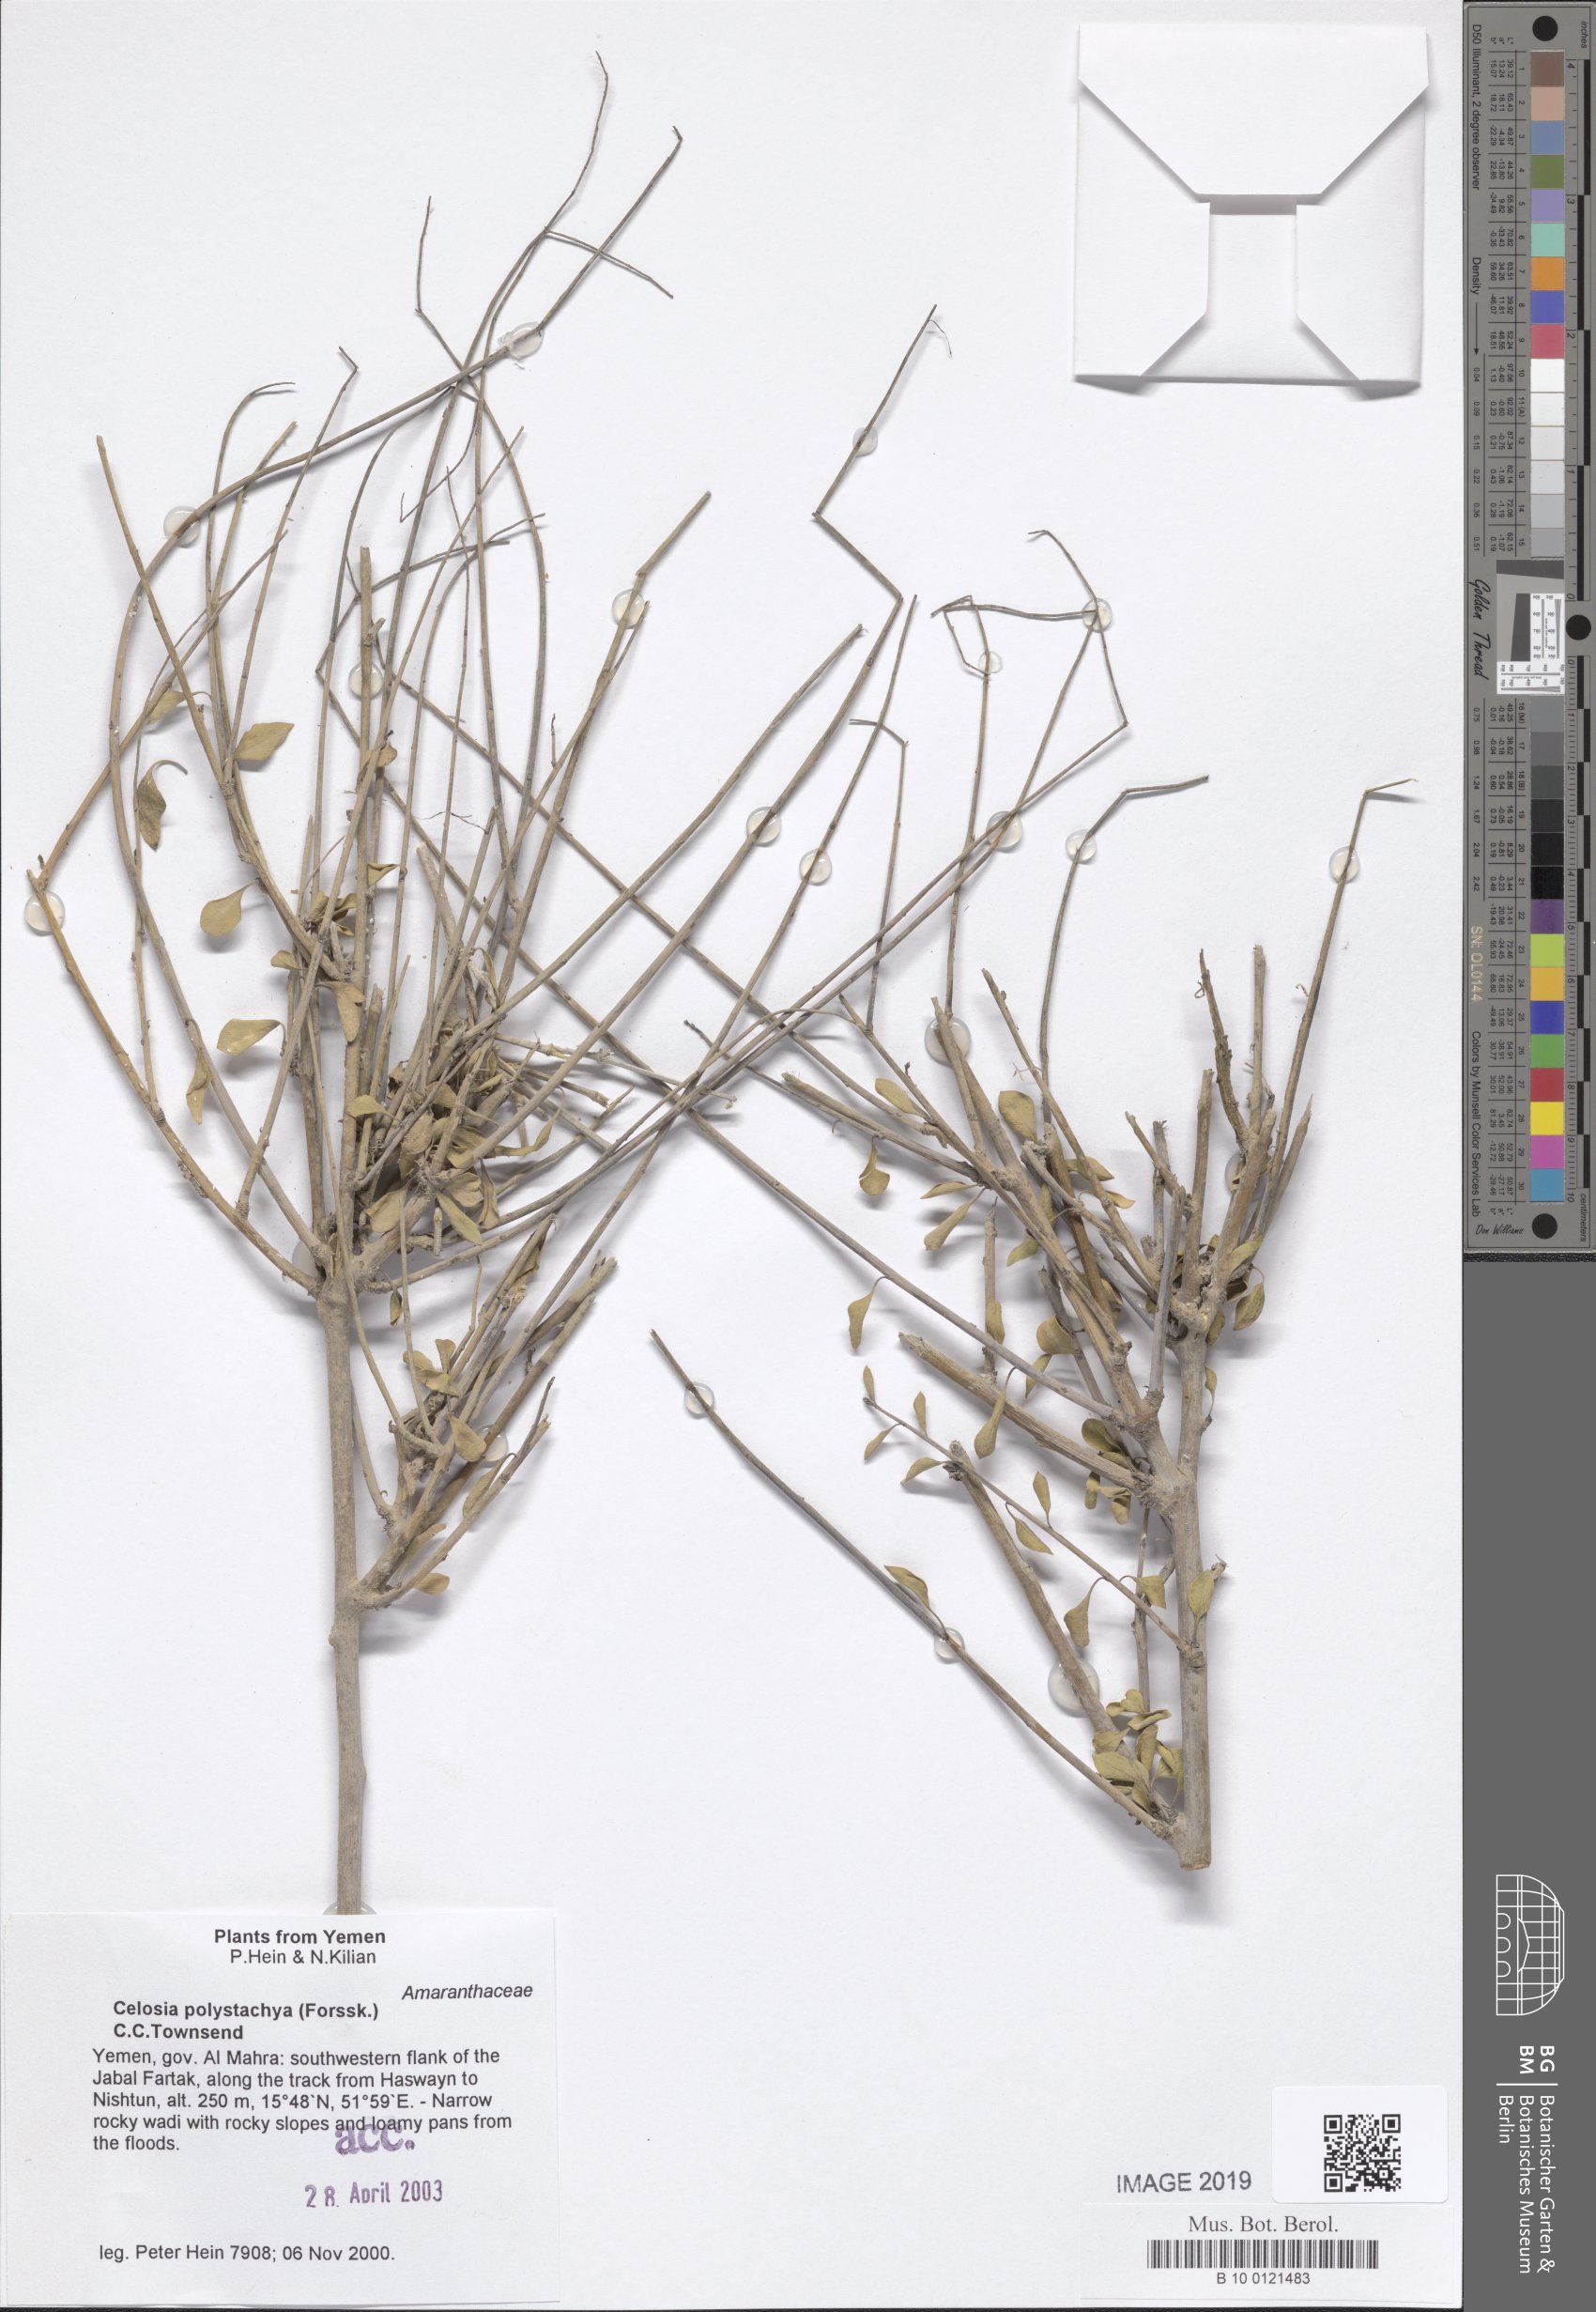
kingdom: Plantae
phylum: Tracheophyta
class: Magnoliopsida
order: Caryophyllales
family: Amaranthaceae
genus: Celosia
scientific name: Celosia polystachya
